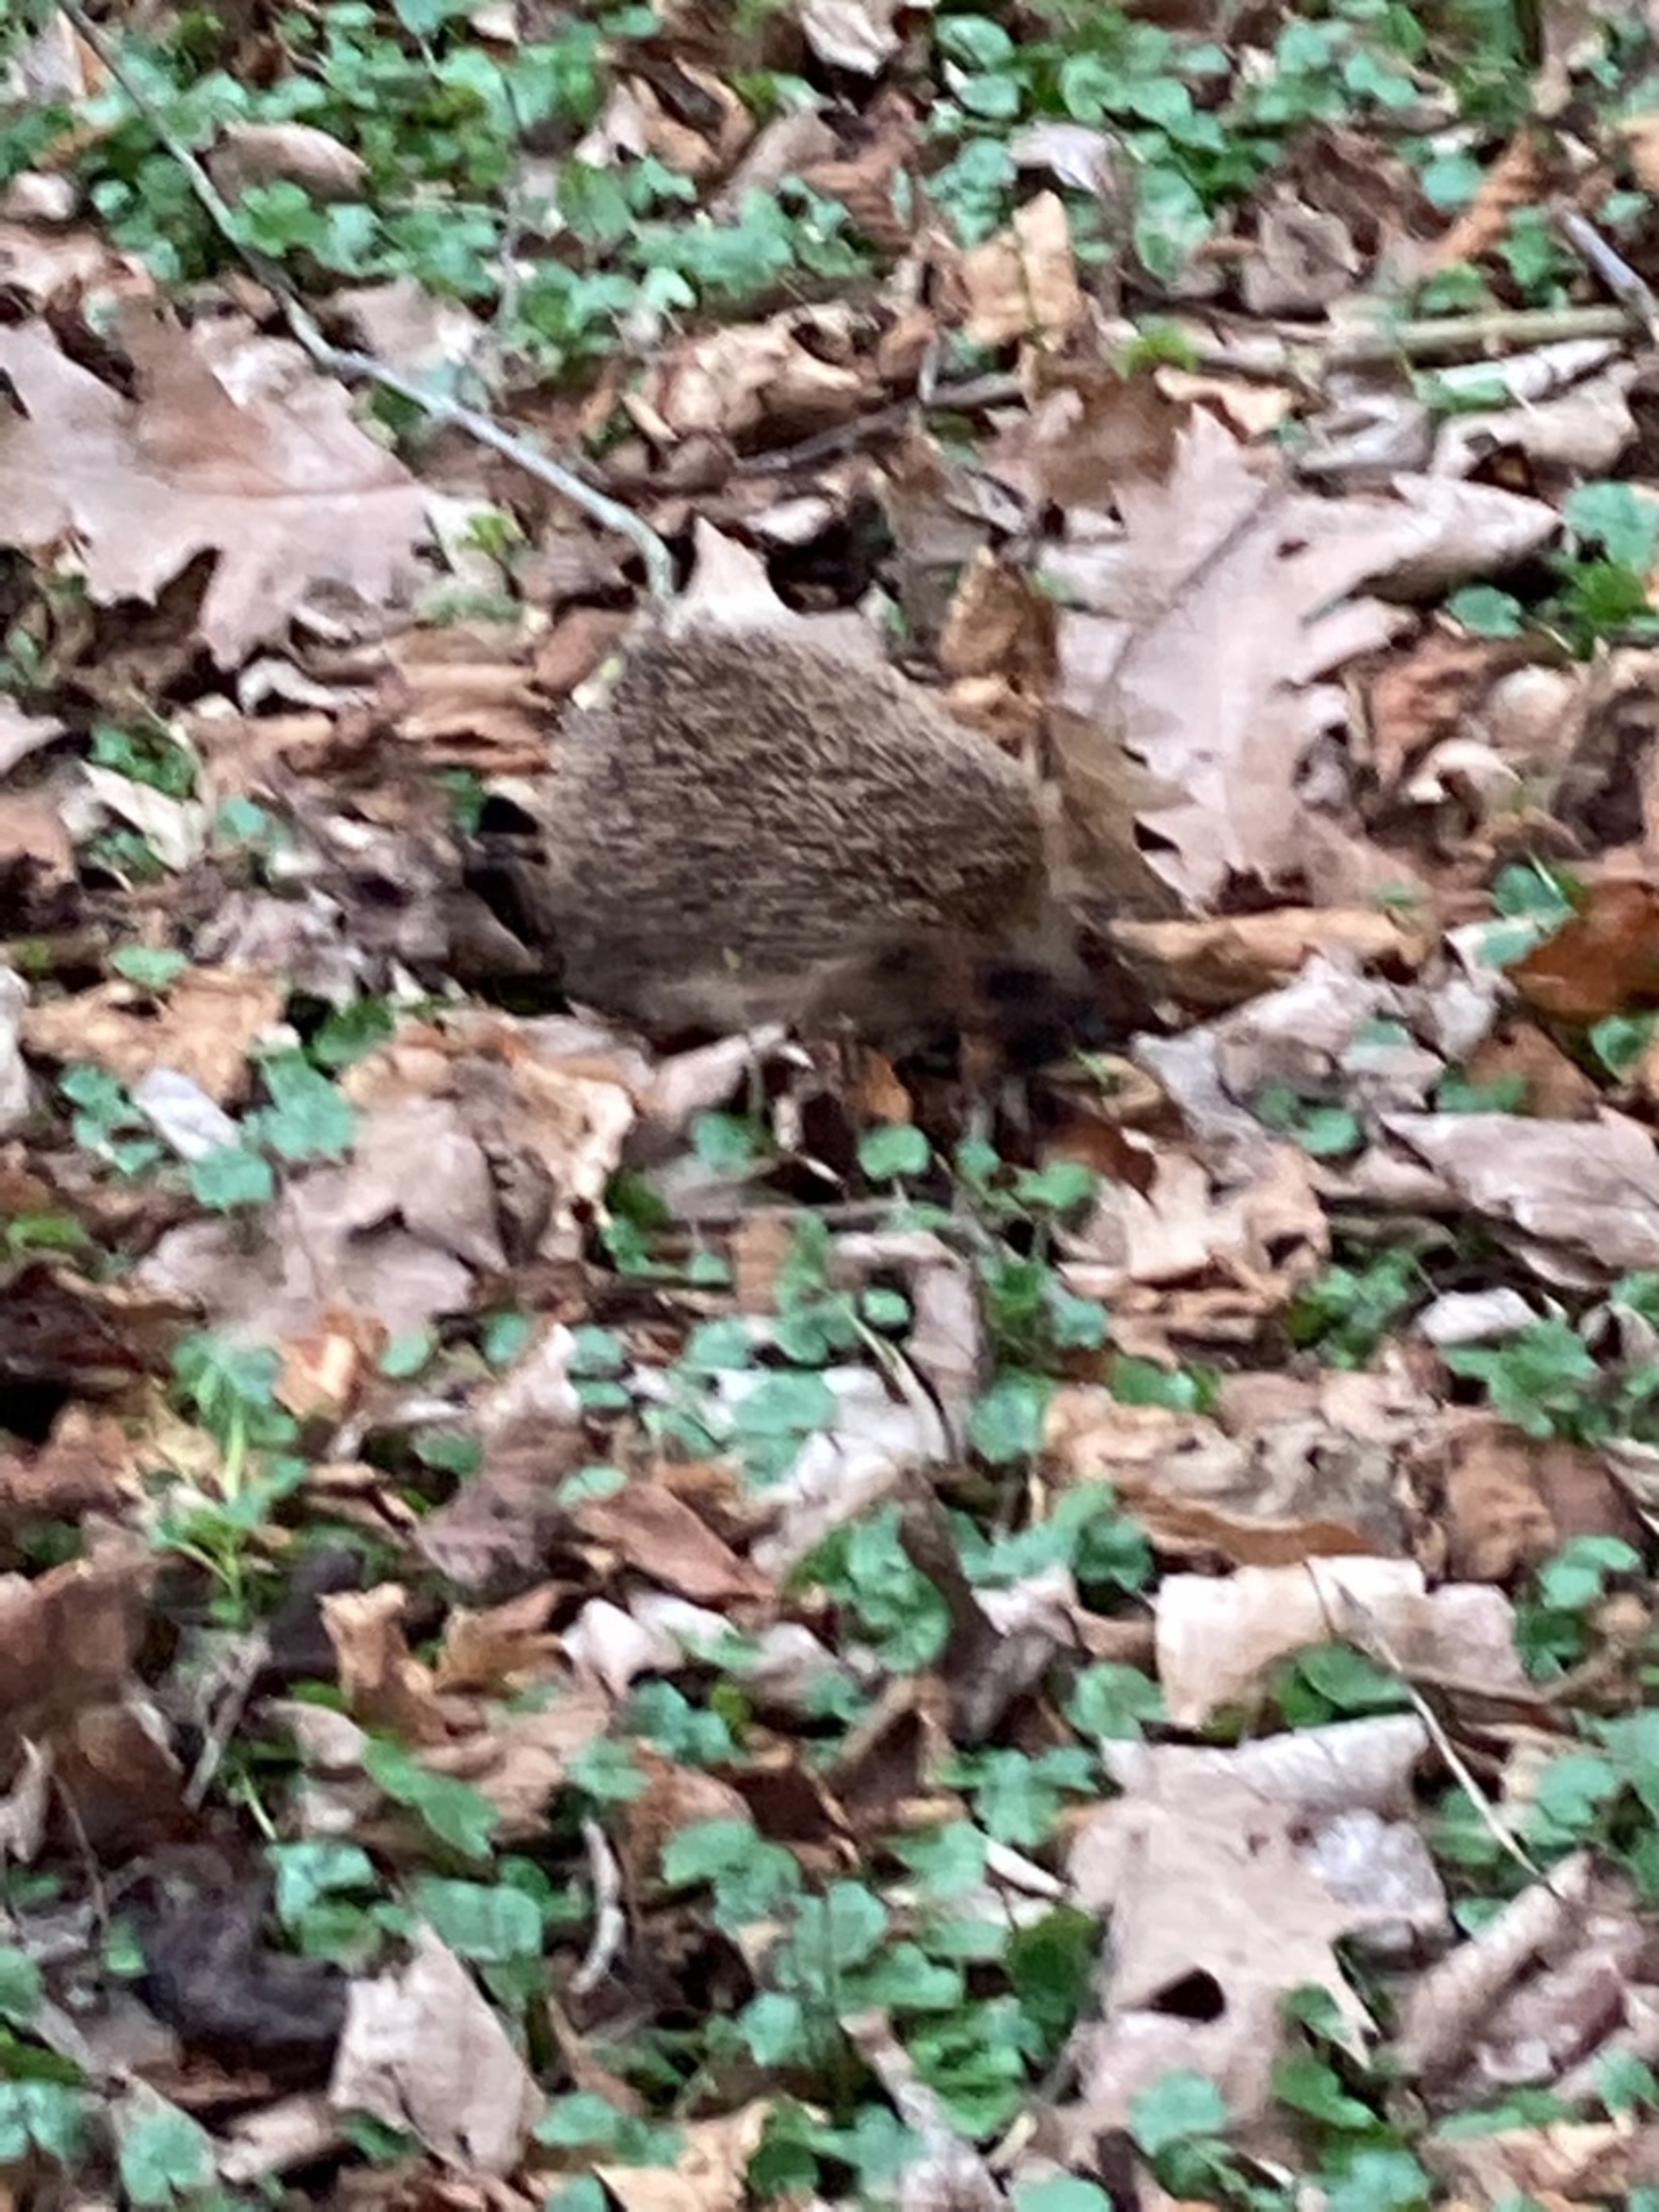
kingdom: Animalia
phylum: Chordata
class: Mammalia
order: Erinaceomorpha
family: Erinaceidae
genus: Erinaceus
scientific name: Erinaceus europaeus
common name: Pindsvin
